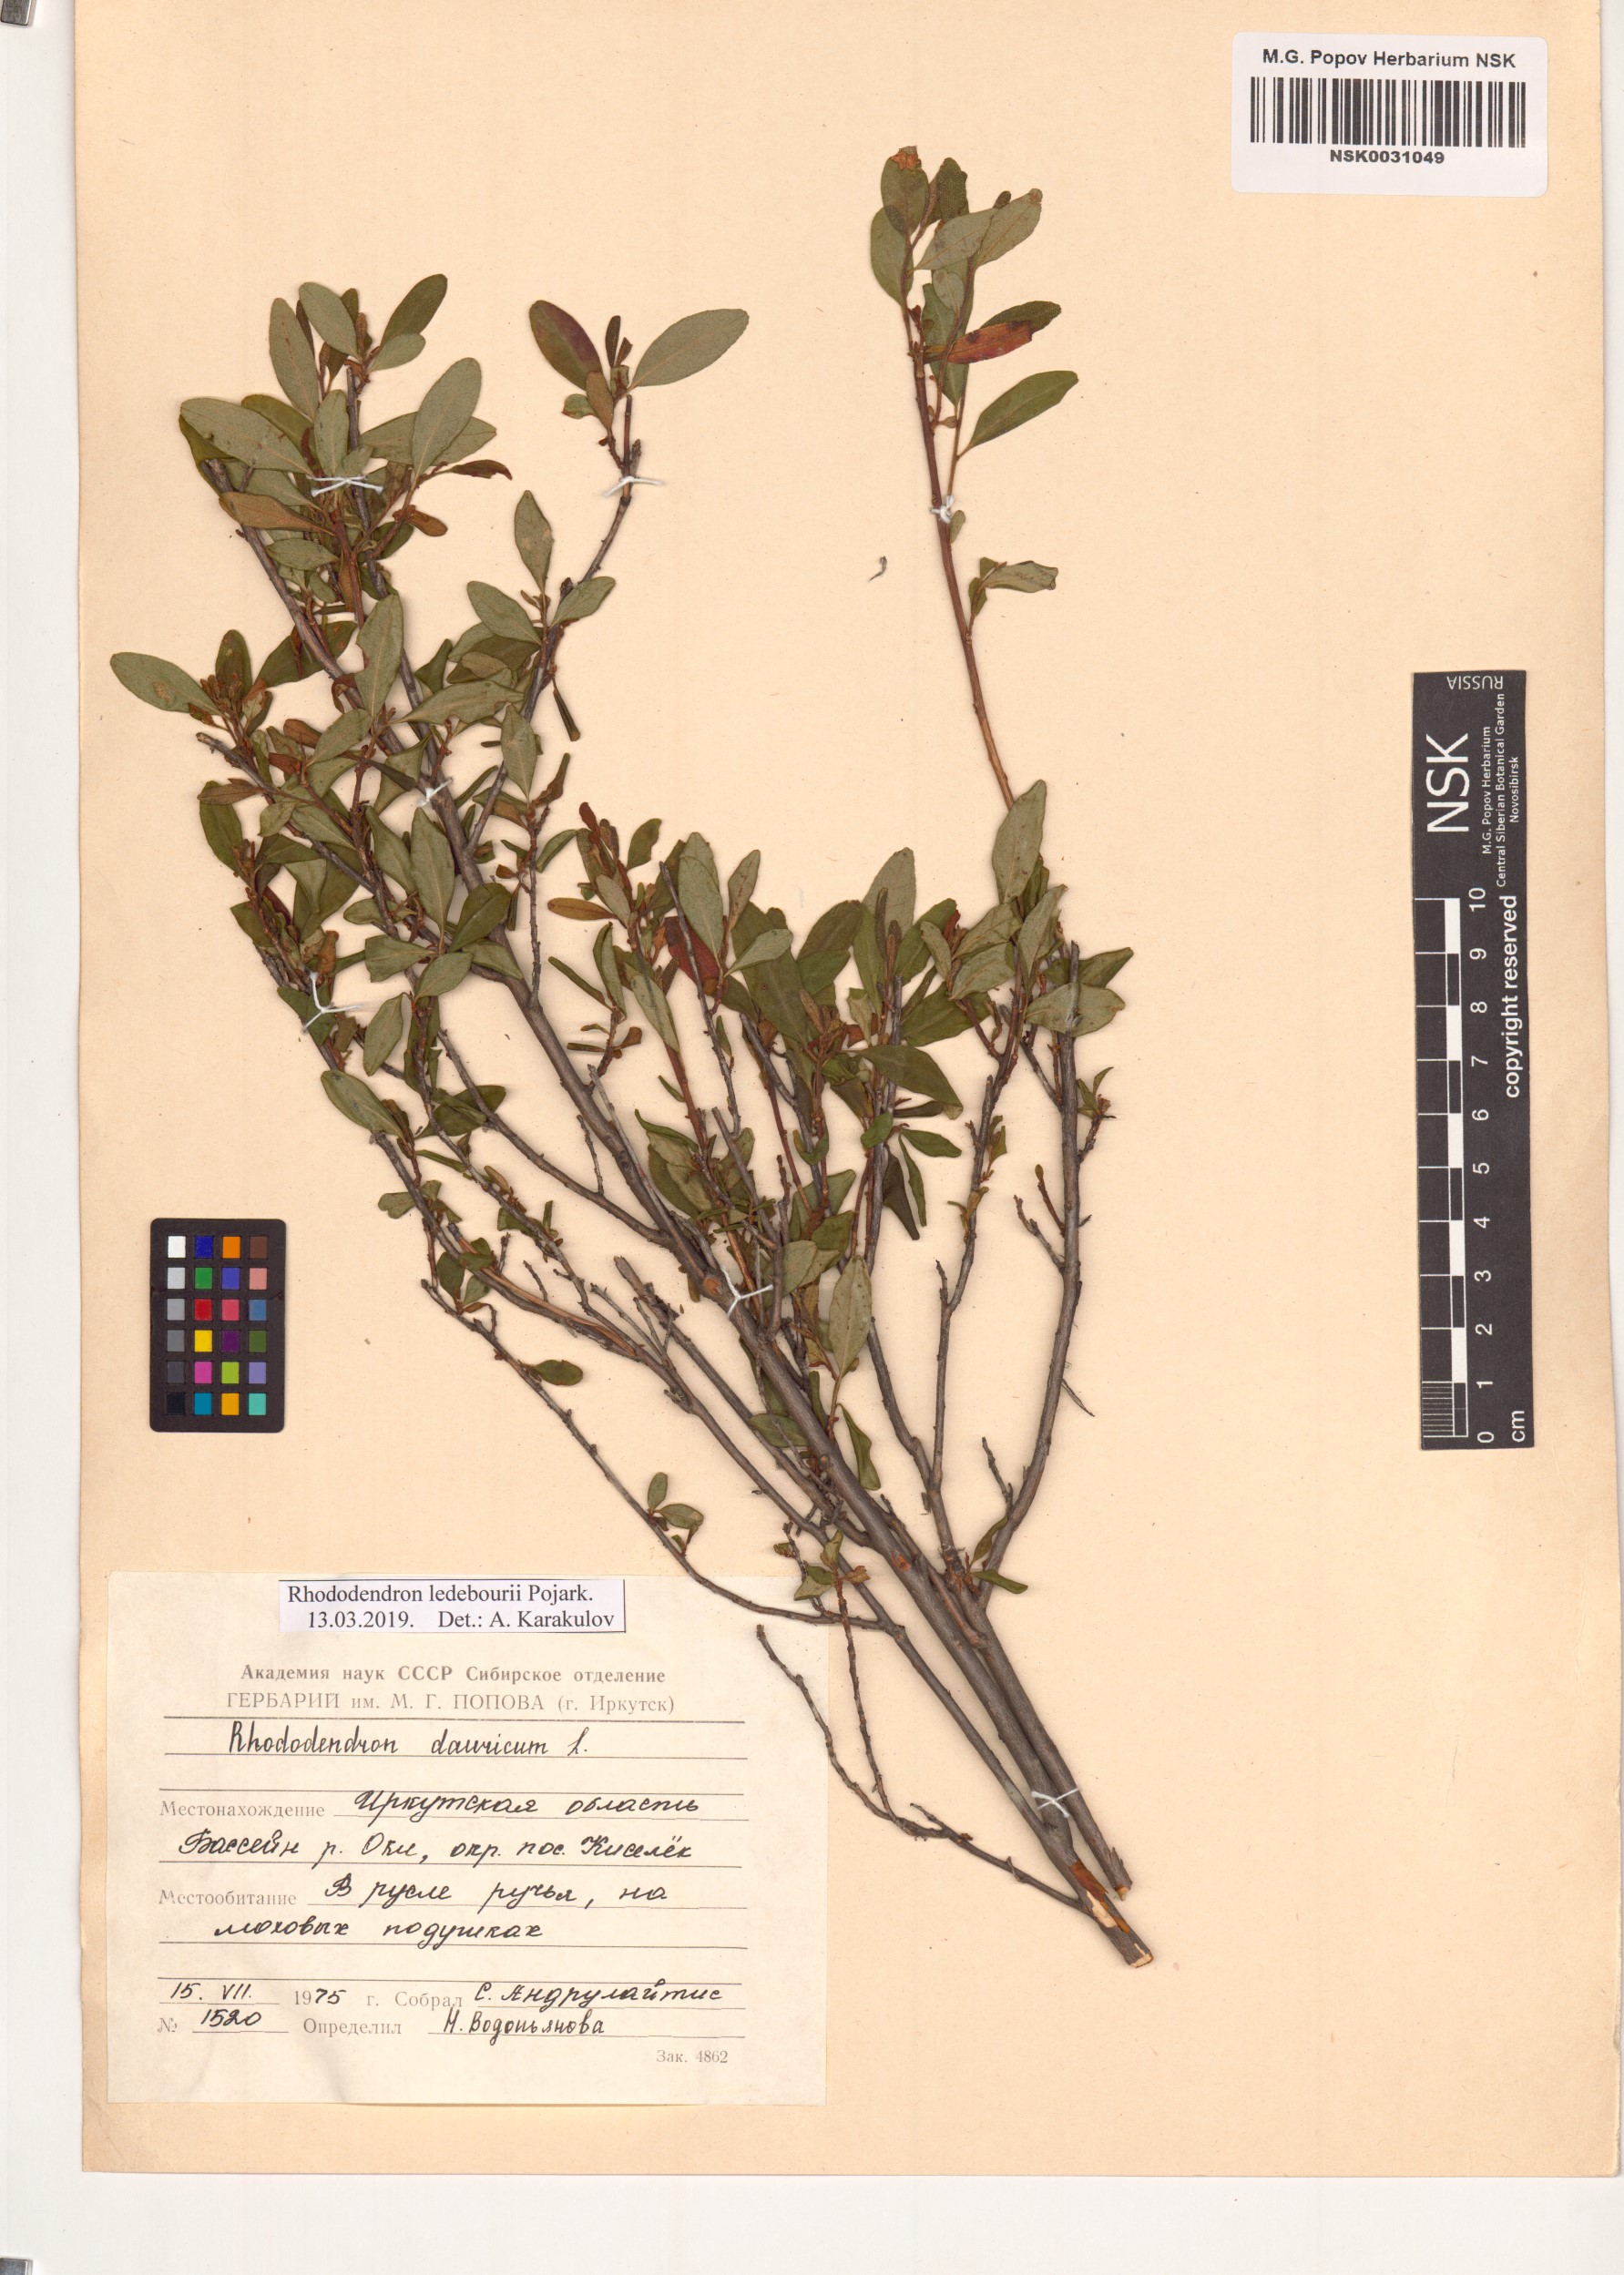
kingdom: Plantae
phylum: Tracheophyta
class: Magnoliopsida
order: Ericales
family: Ericaceae
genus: Rhododendron
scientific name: Rhododendron dauricum
